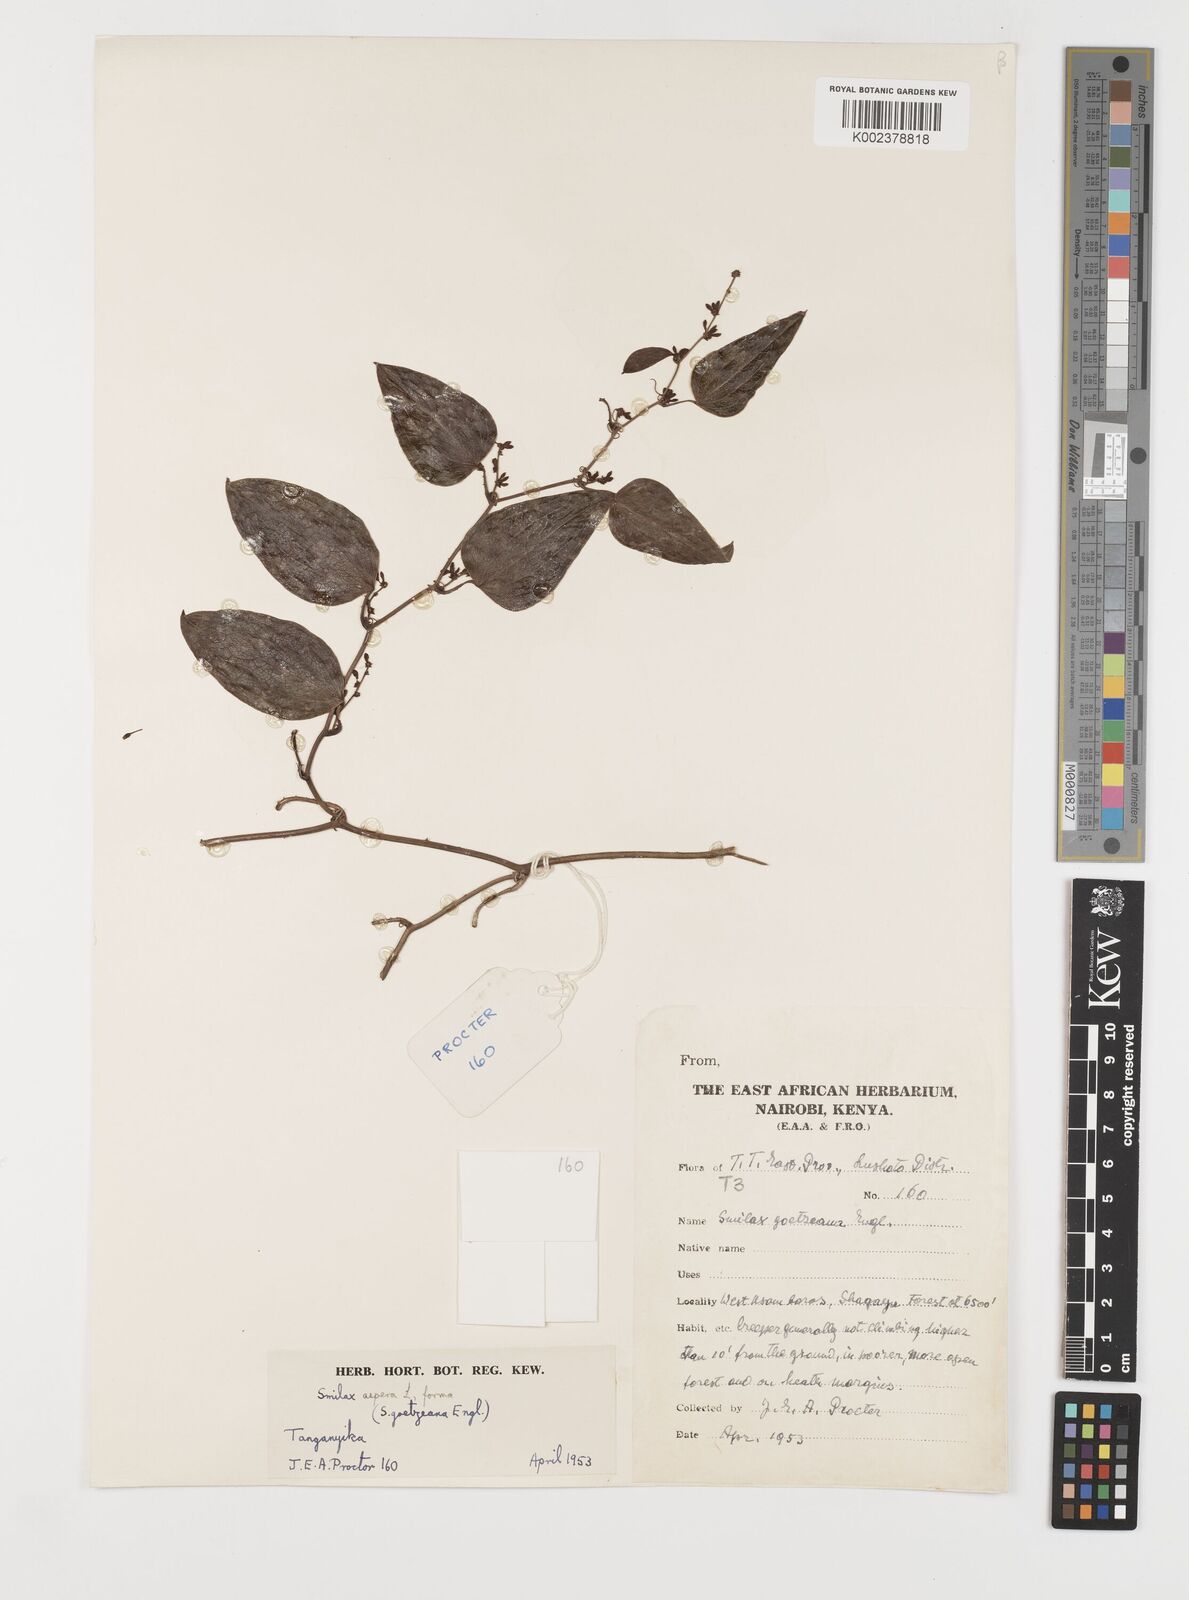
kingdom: Plantae
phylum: Tracheophyta
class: Liliopsida
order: Liliales
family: Smilacaceae
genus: Smilax
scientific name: Smilax aspera
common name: Common smilax
